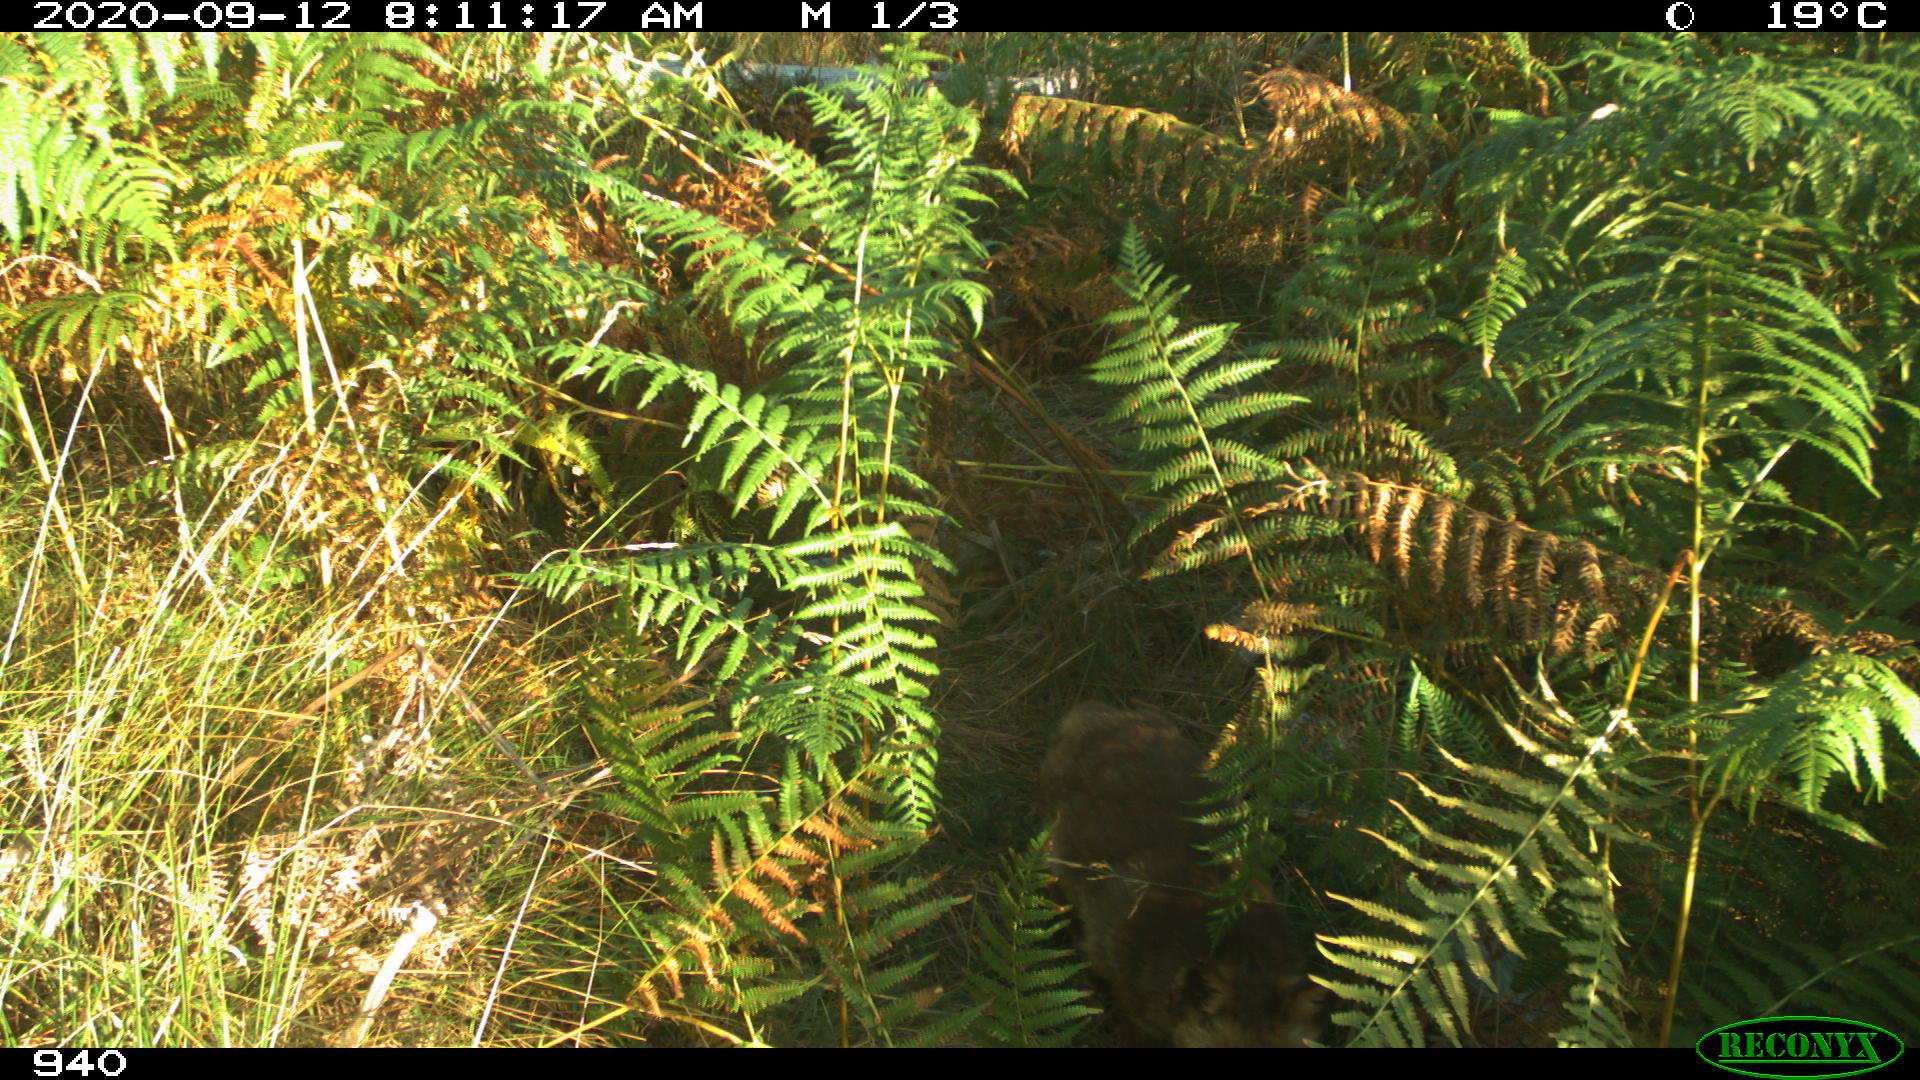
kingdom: Animalia
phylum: Chordata
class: Mammalia
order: Carnivora
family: Canidae
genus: Vulpes
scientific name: Vulpes vulpes
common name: Red fox
